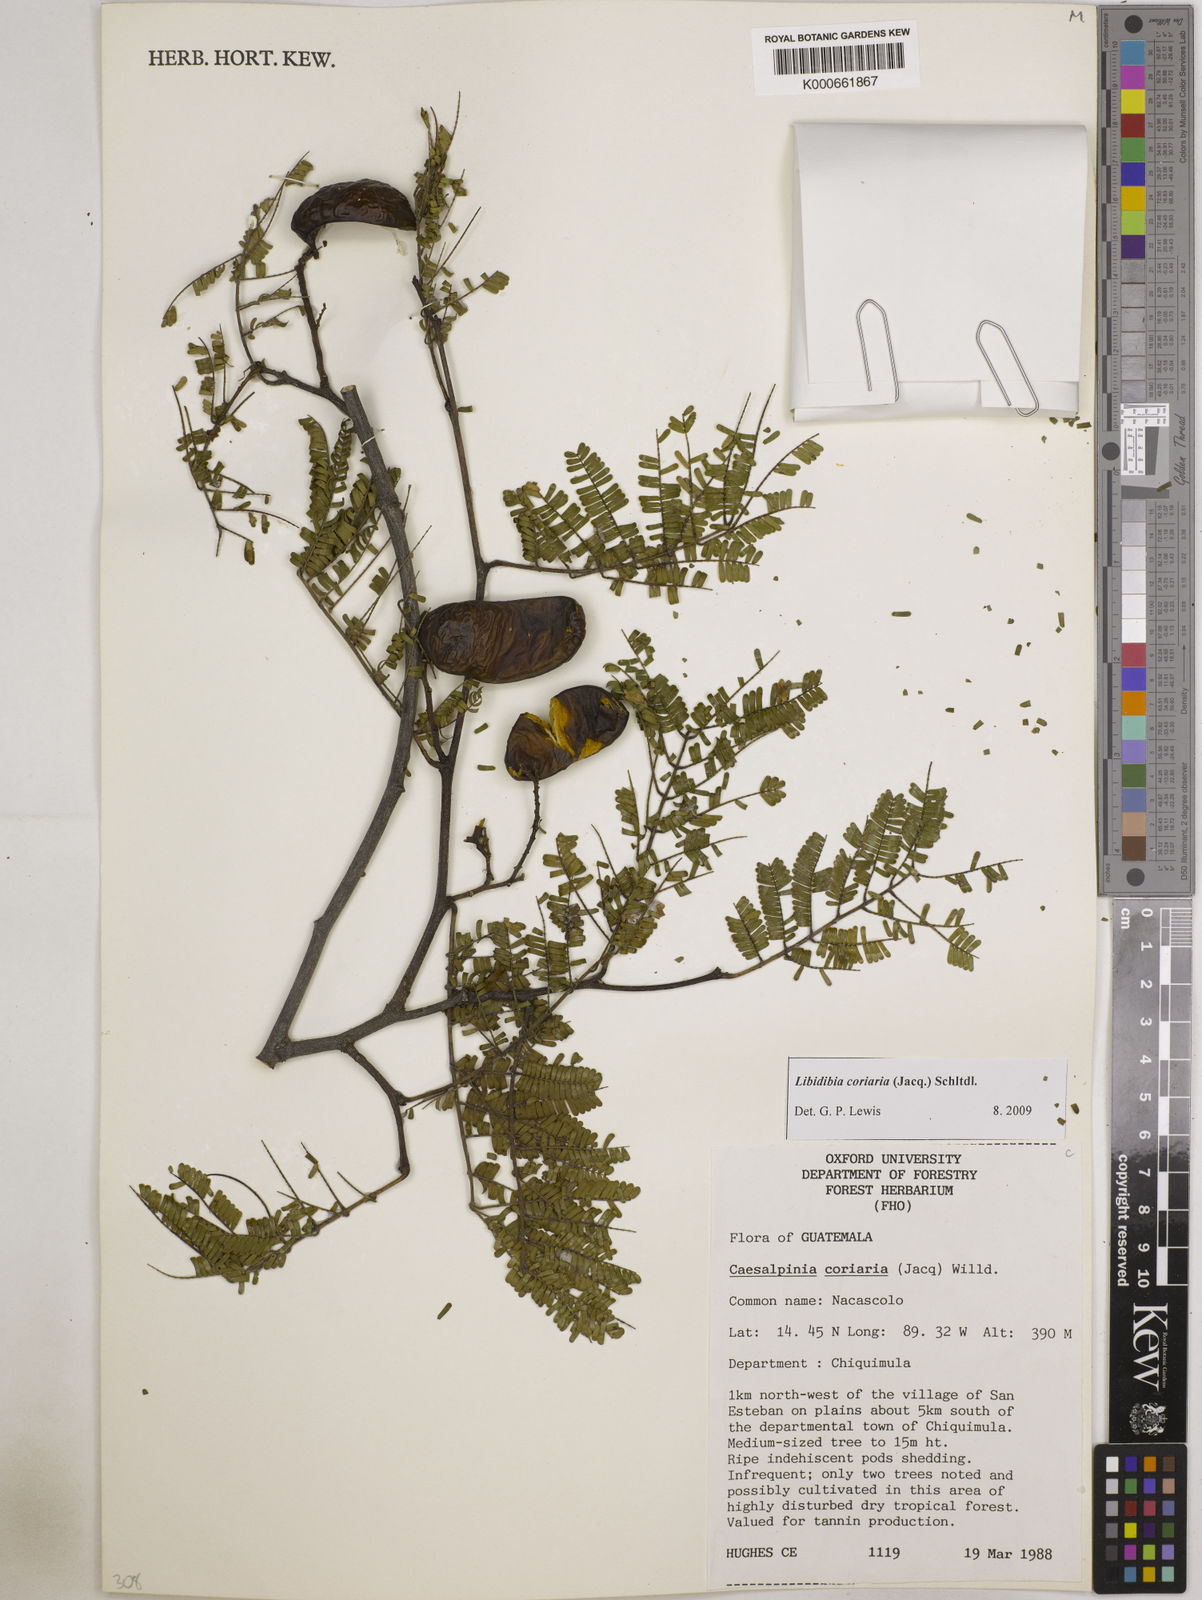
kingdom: Plantae
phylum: Tracheophyta
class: Magnoliopsida
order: Fabales
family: Fabaceae
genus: Libidibia
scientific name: Libidibia coriaria
